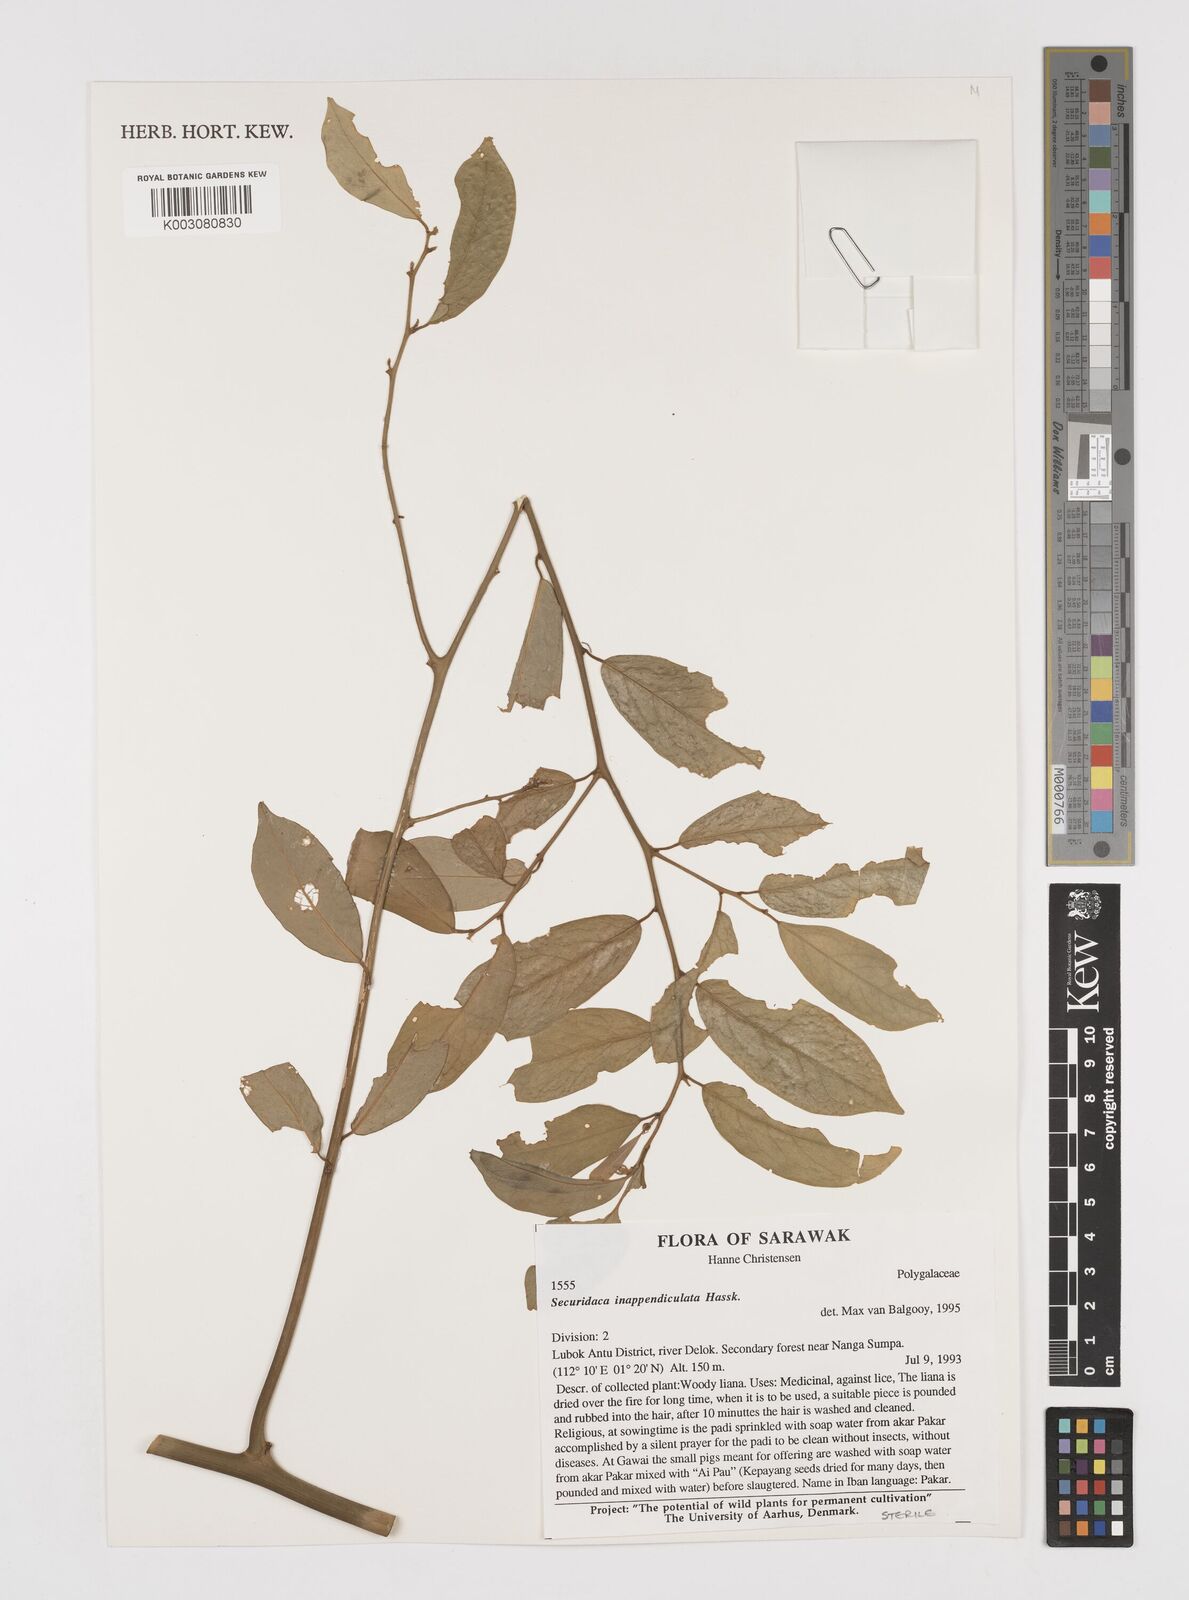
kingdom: Plantae
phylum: Tracheophyta
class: Magnoliopsida
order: Fabales
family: Polygalaceae
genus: Securidaca
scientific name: Securidaca inappendiculata
